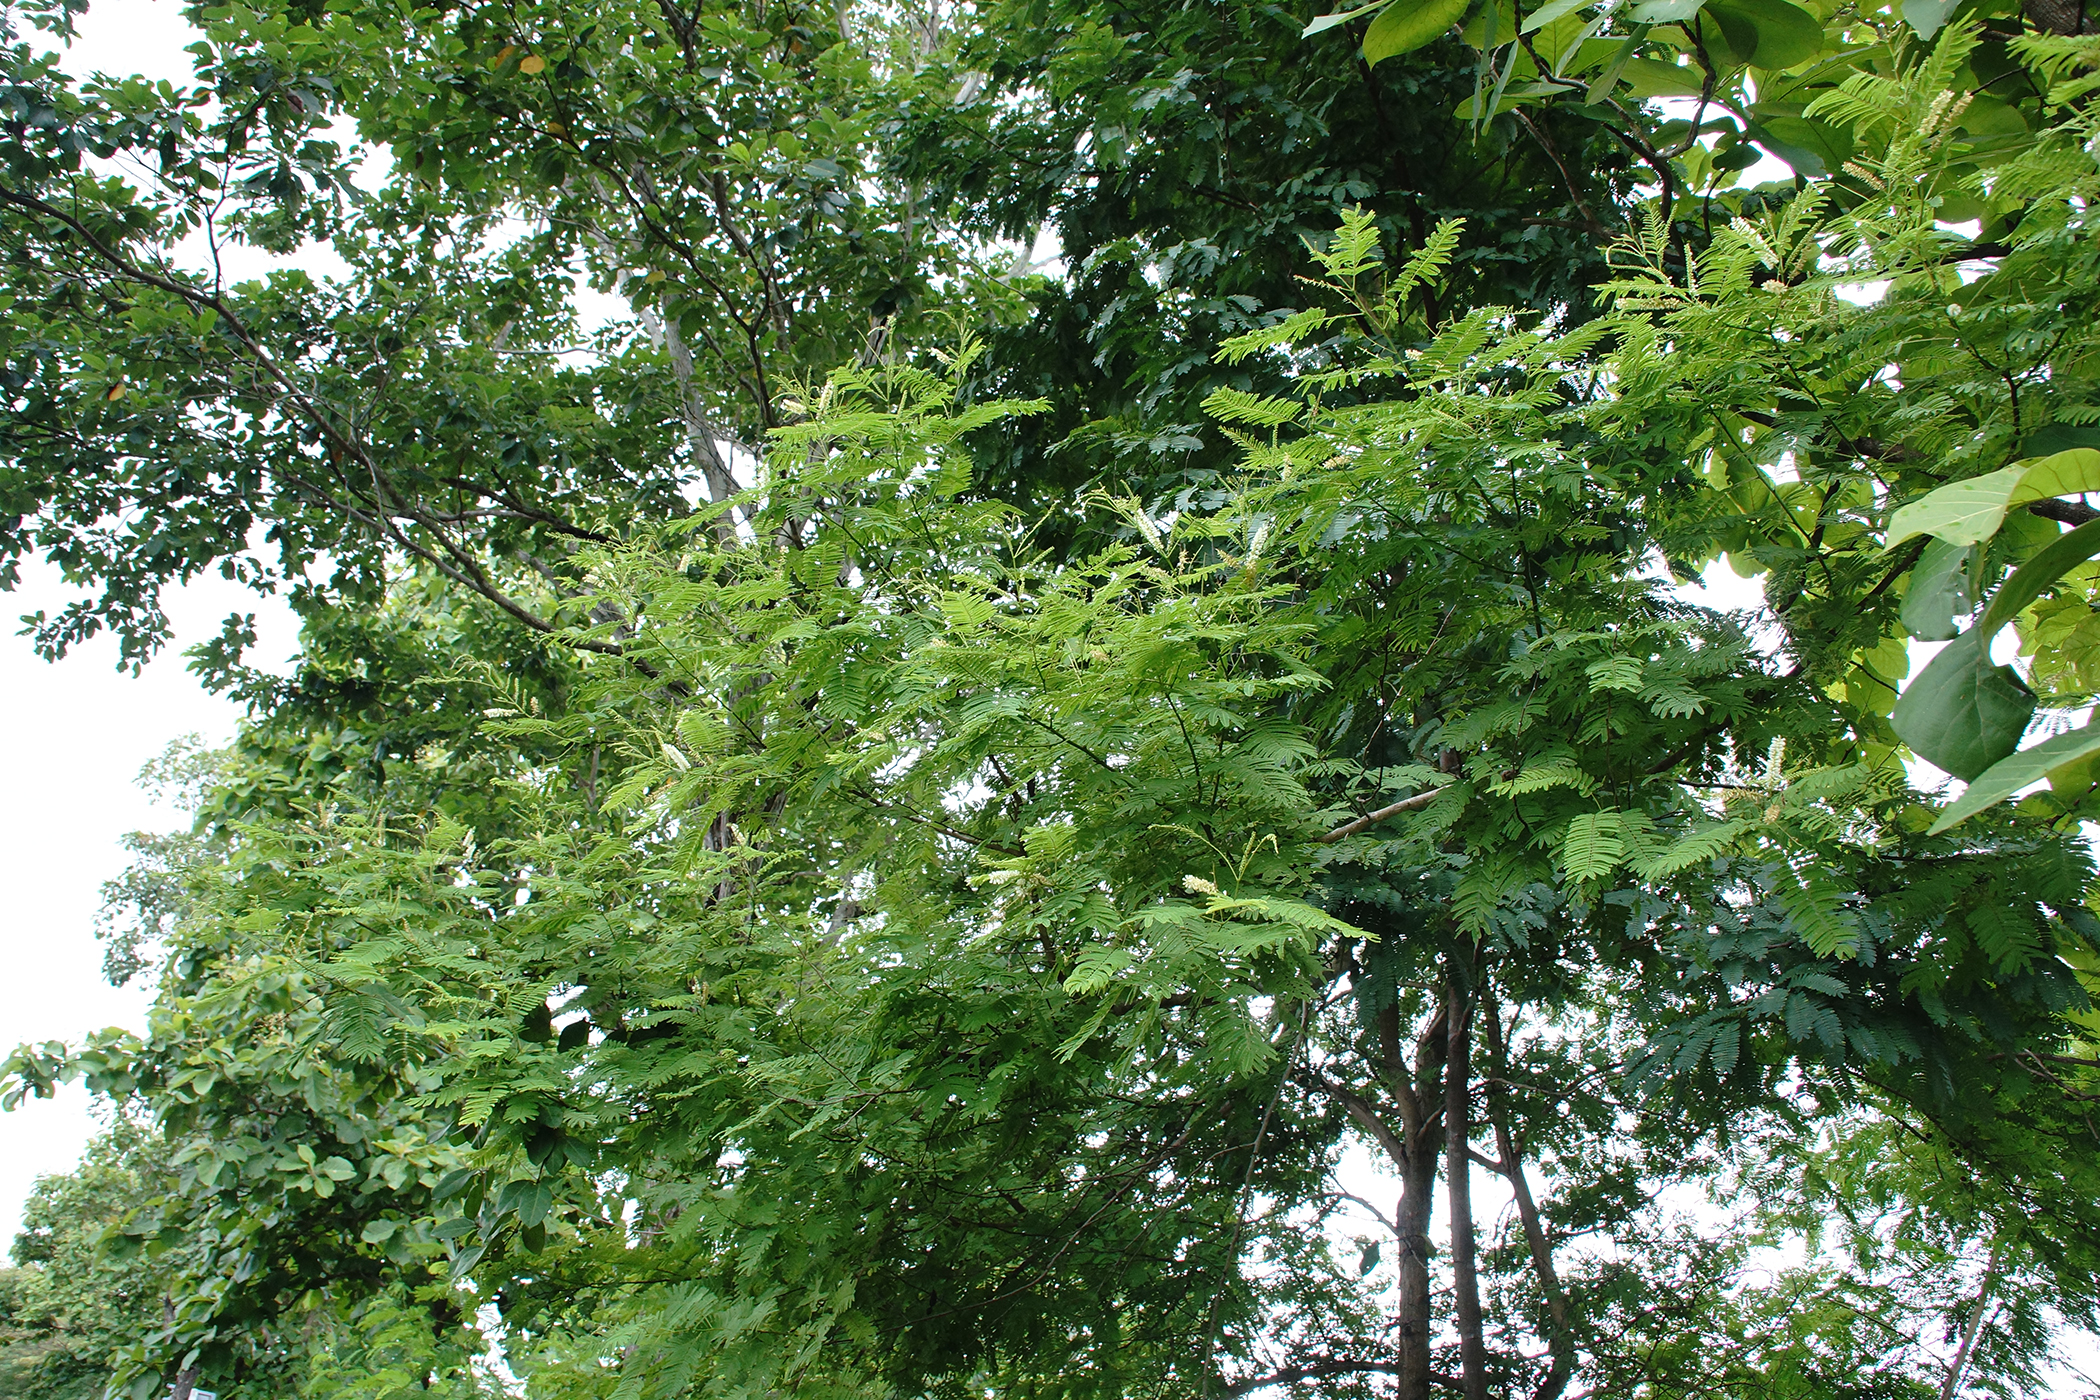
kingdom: Plantae
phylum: Tracheophyta
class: Magnoliopsida
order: Fabales
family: Fabaceae
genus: Senegalia
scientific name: Senegalia catechu
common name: Black cutch
